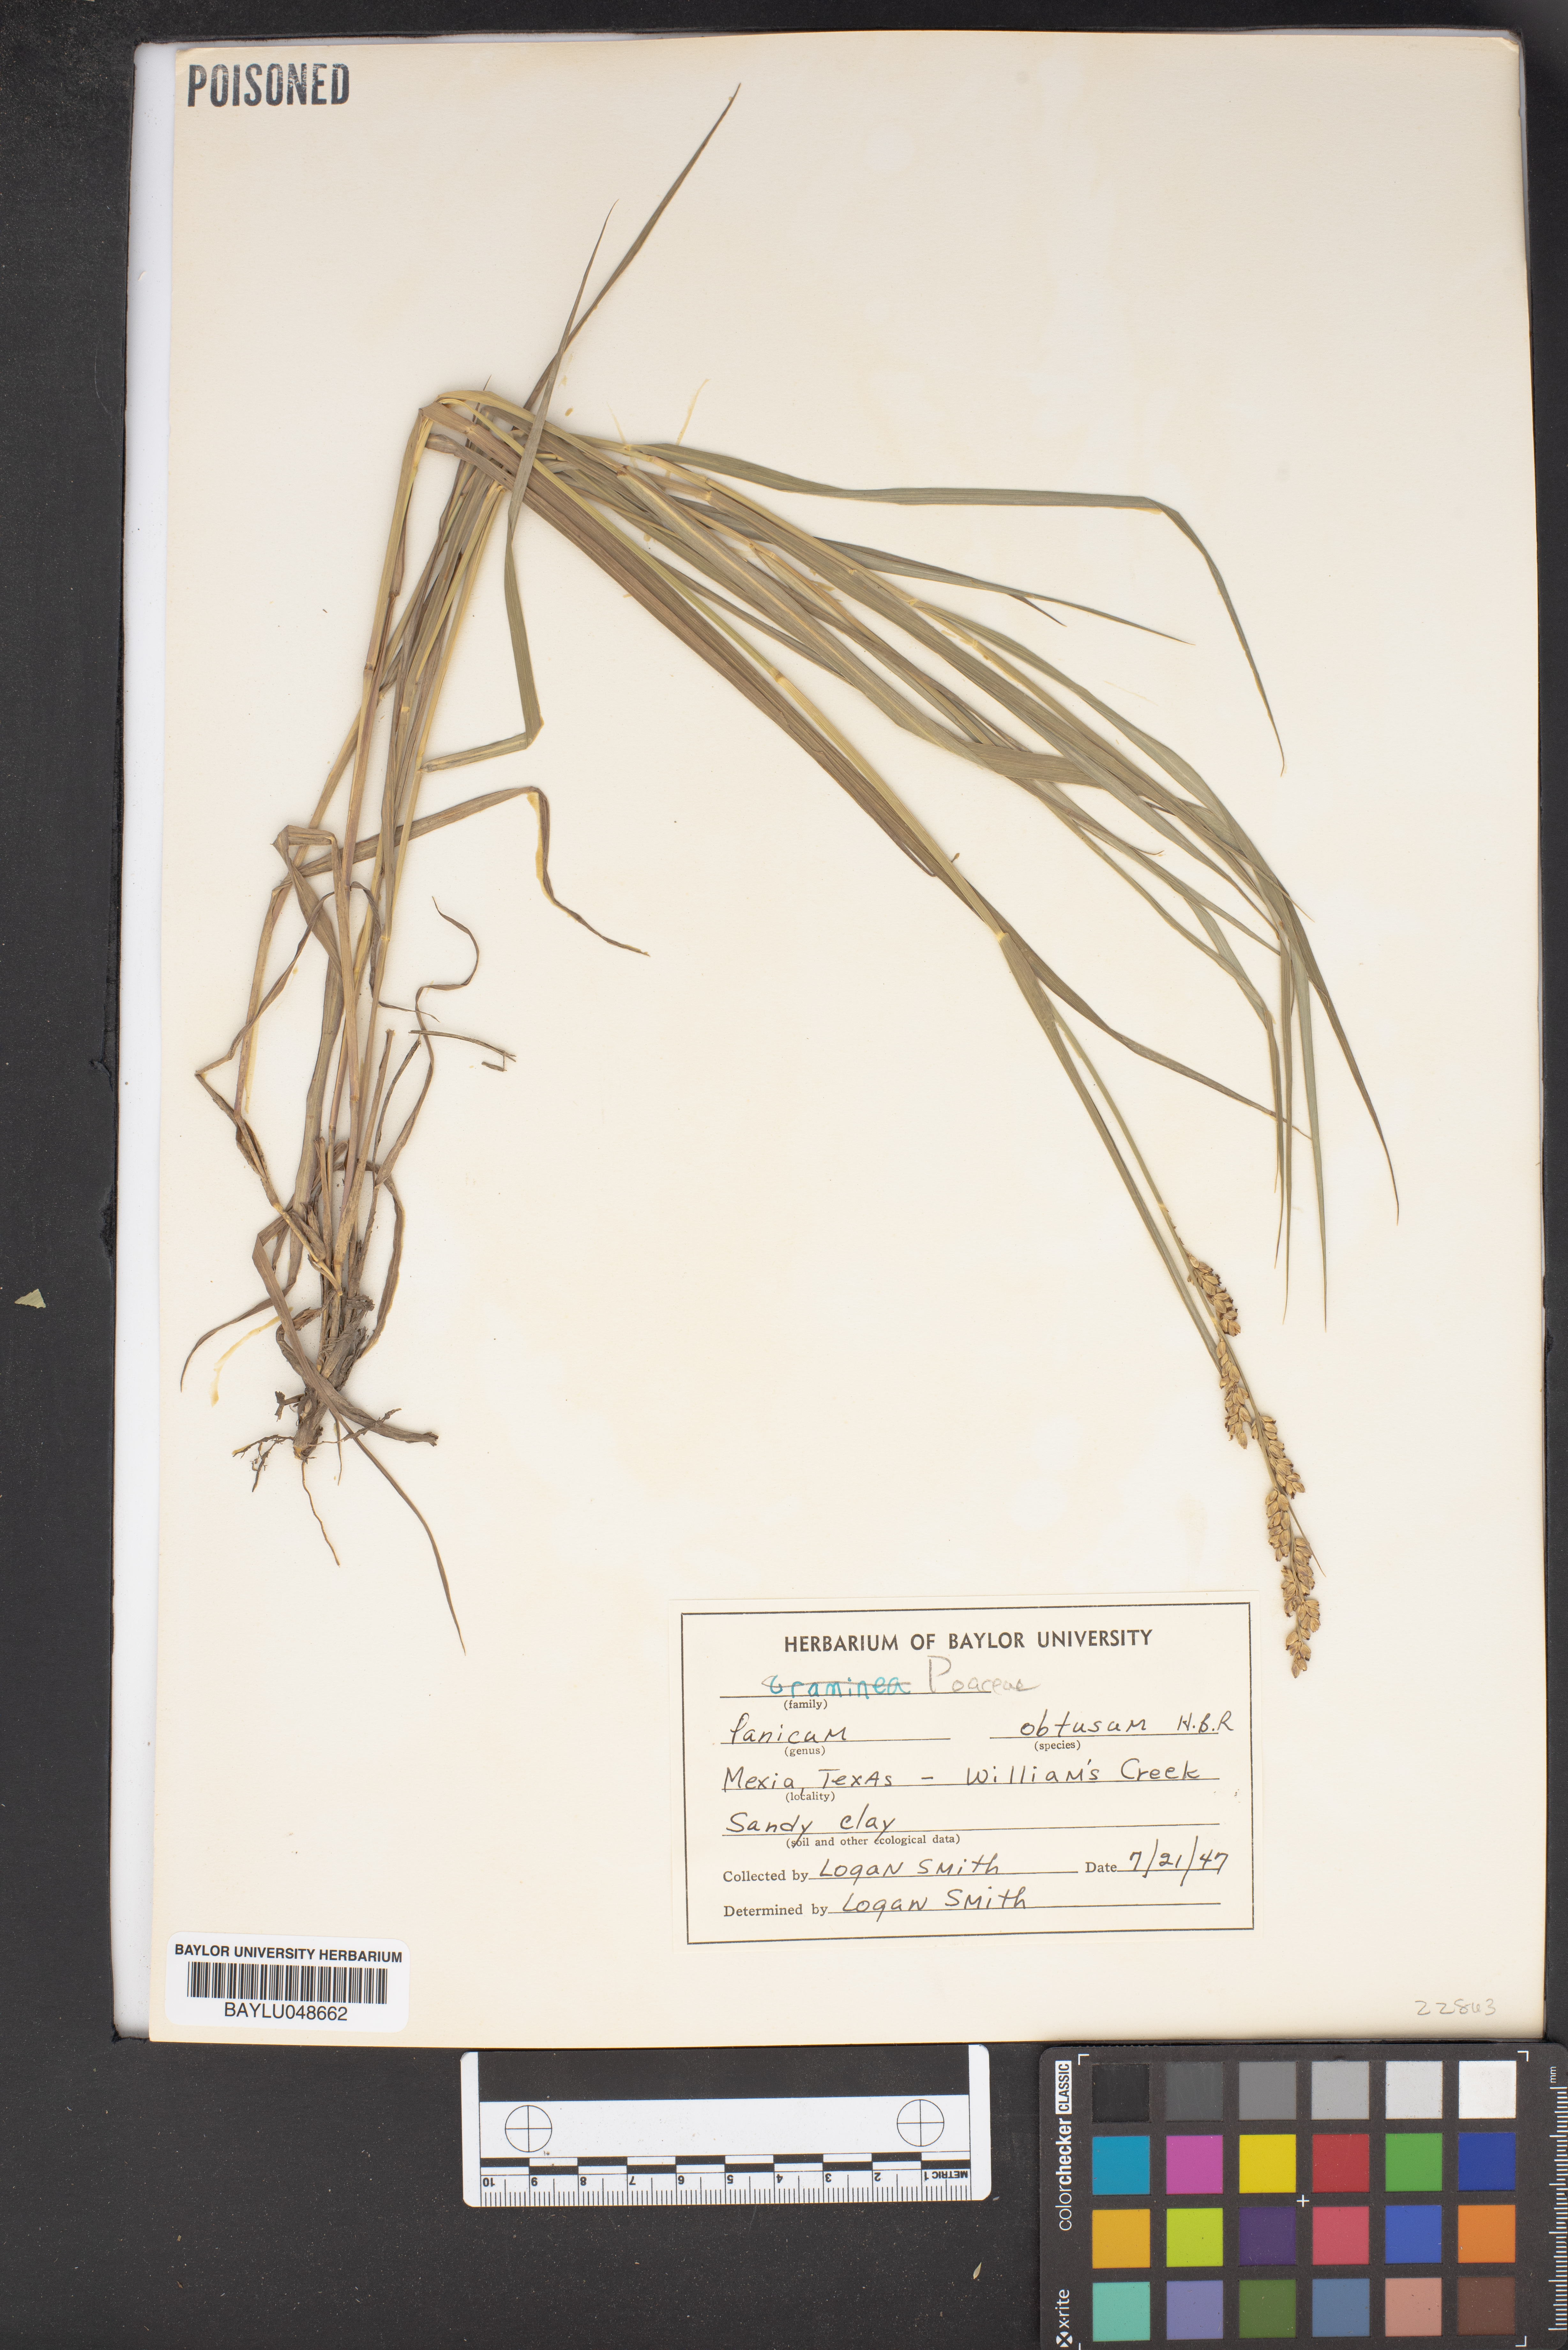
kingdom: Plantae
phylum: Tracheophyta
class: Liliopsida
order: Poales
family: Poaceae
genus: Hopia
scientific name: Hopia obtusa
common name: Vine-mesquite
